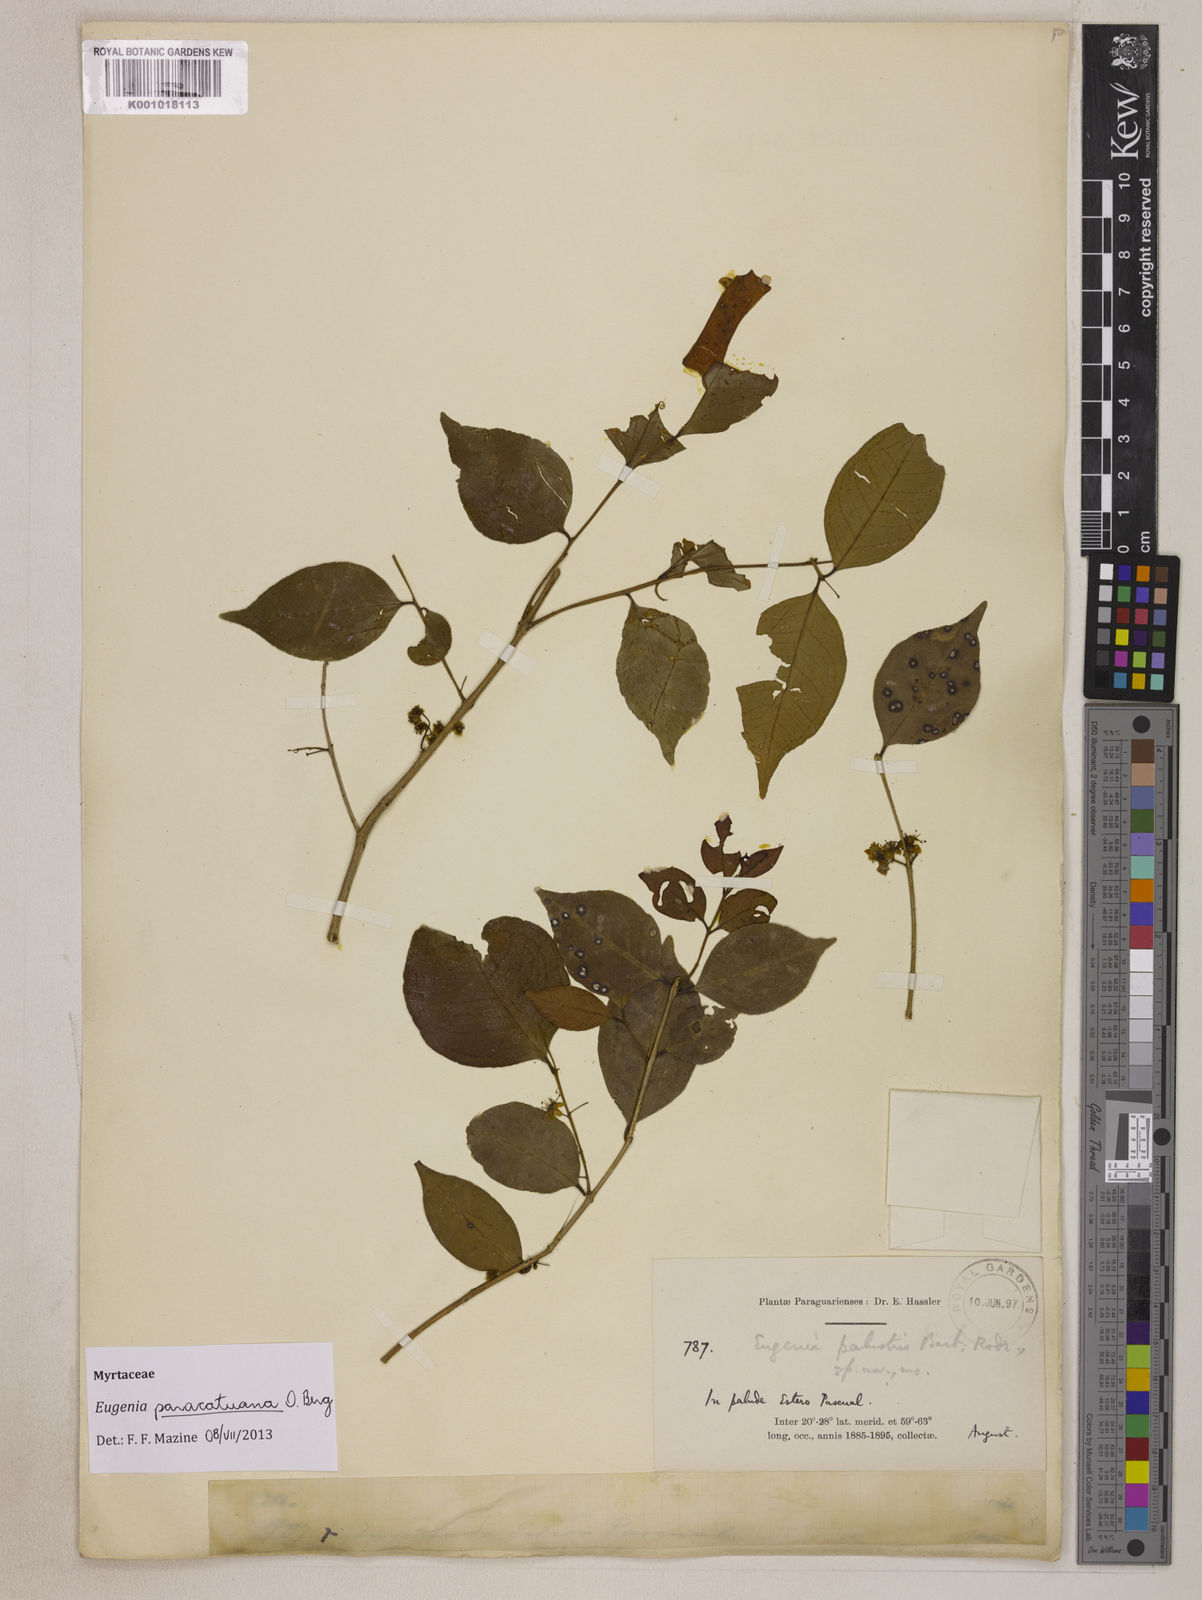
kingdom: Plantae
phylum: Tracheophyta
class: Magnoliopsida
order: Myrtales
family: Myrtaceae
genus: Eugenia
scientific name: Eugenia moraviana
